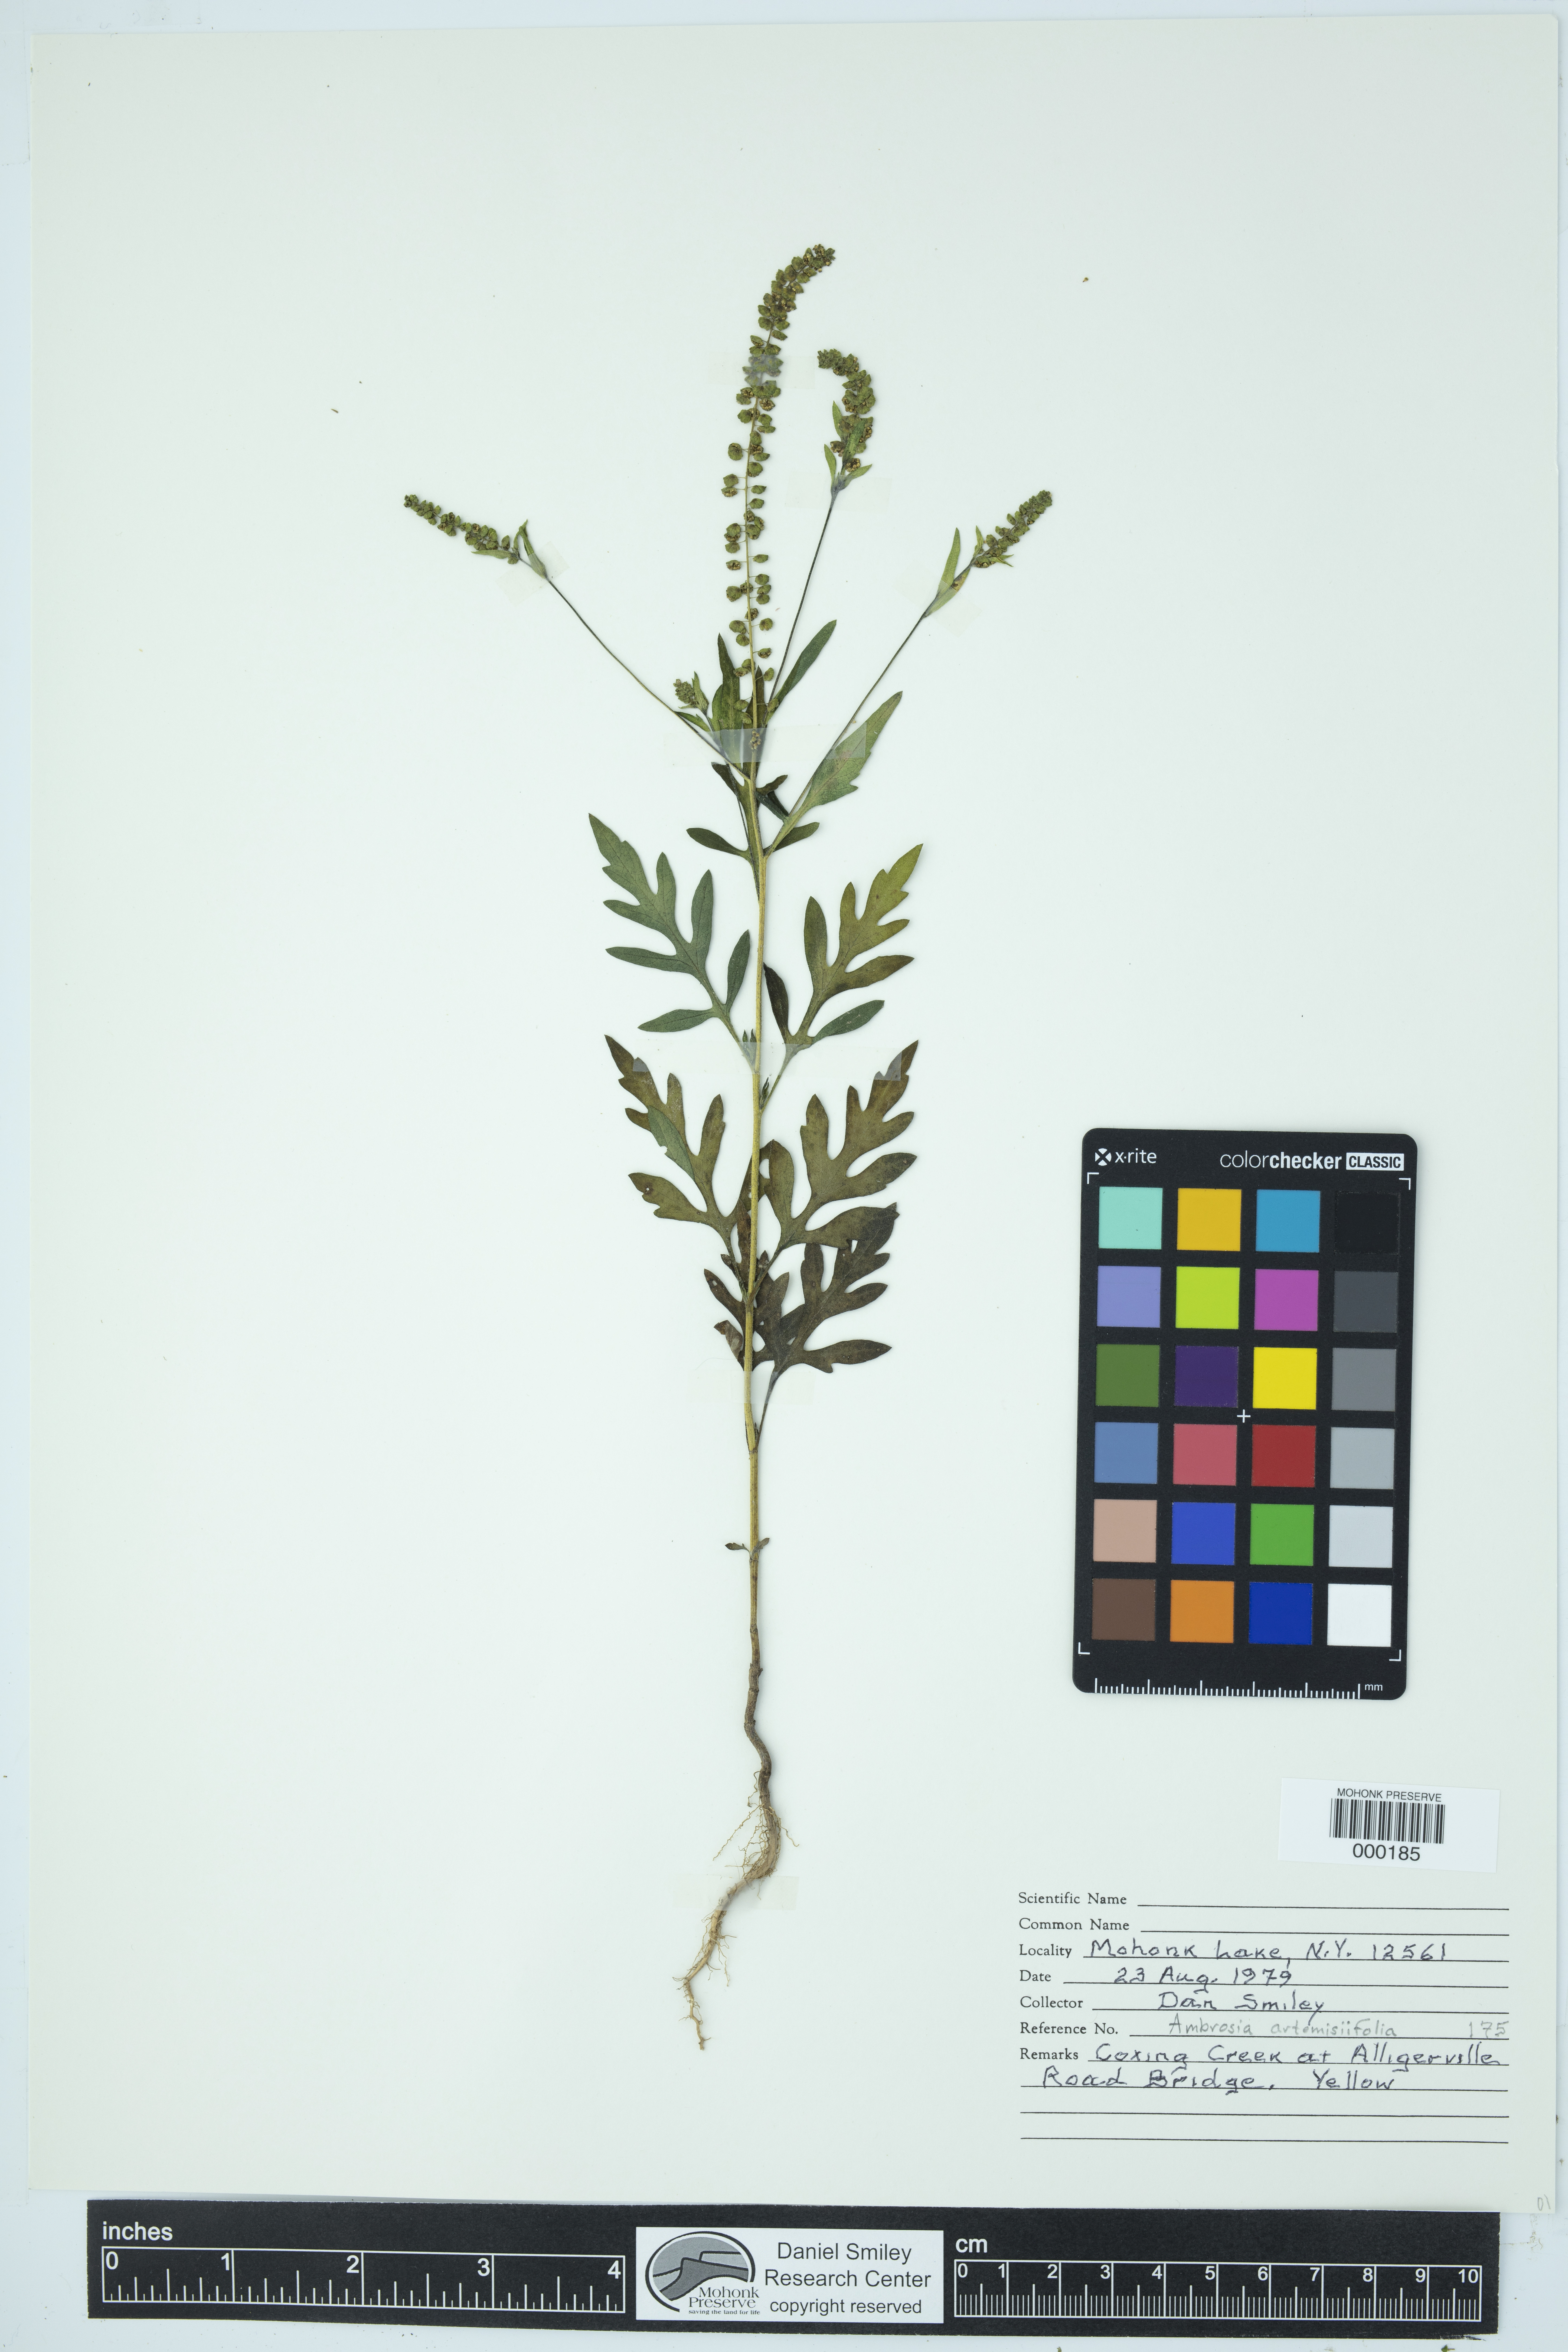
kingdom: Plantae
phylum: Tracheophyta
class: Magnoliopsida
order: Asterales
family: Asteraceae
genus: Ambrosia
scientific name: Ambrosia artemisiifolia
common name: Annual ragweed
